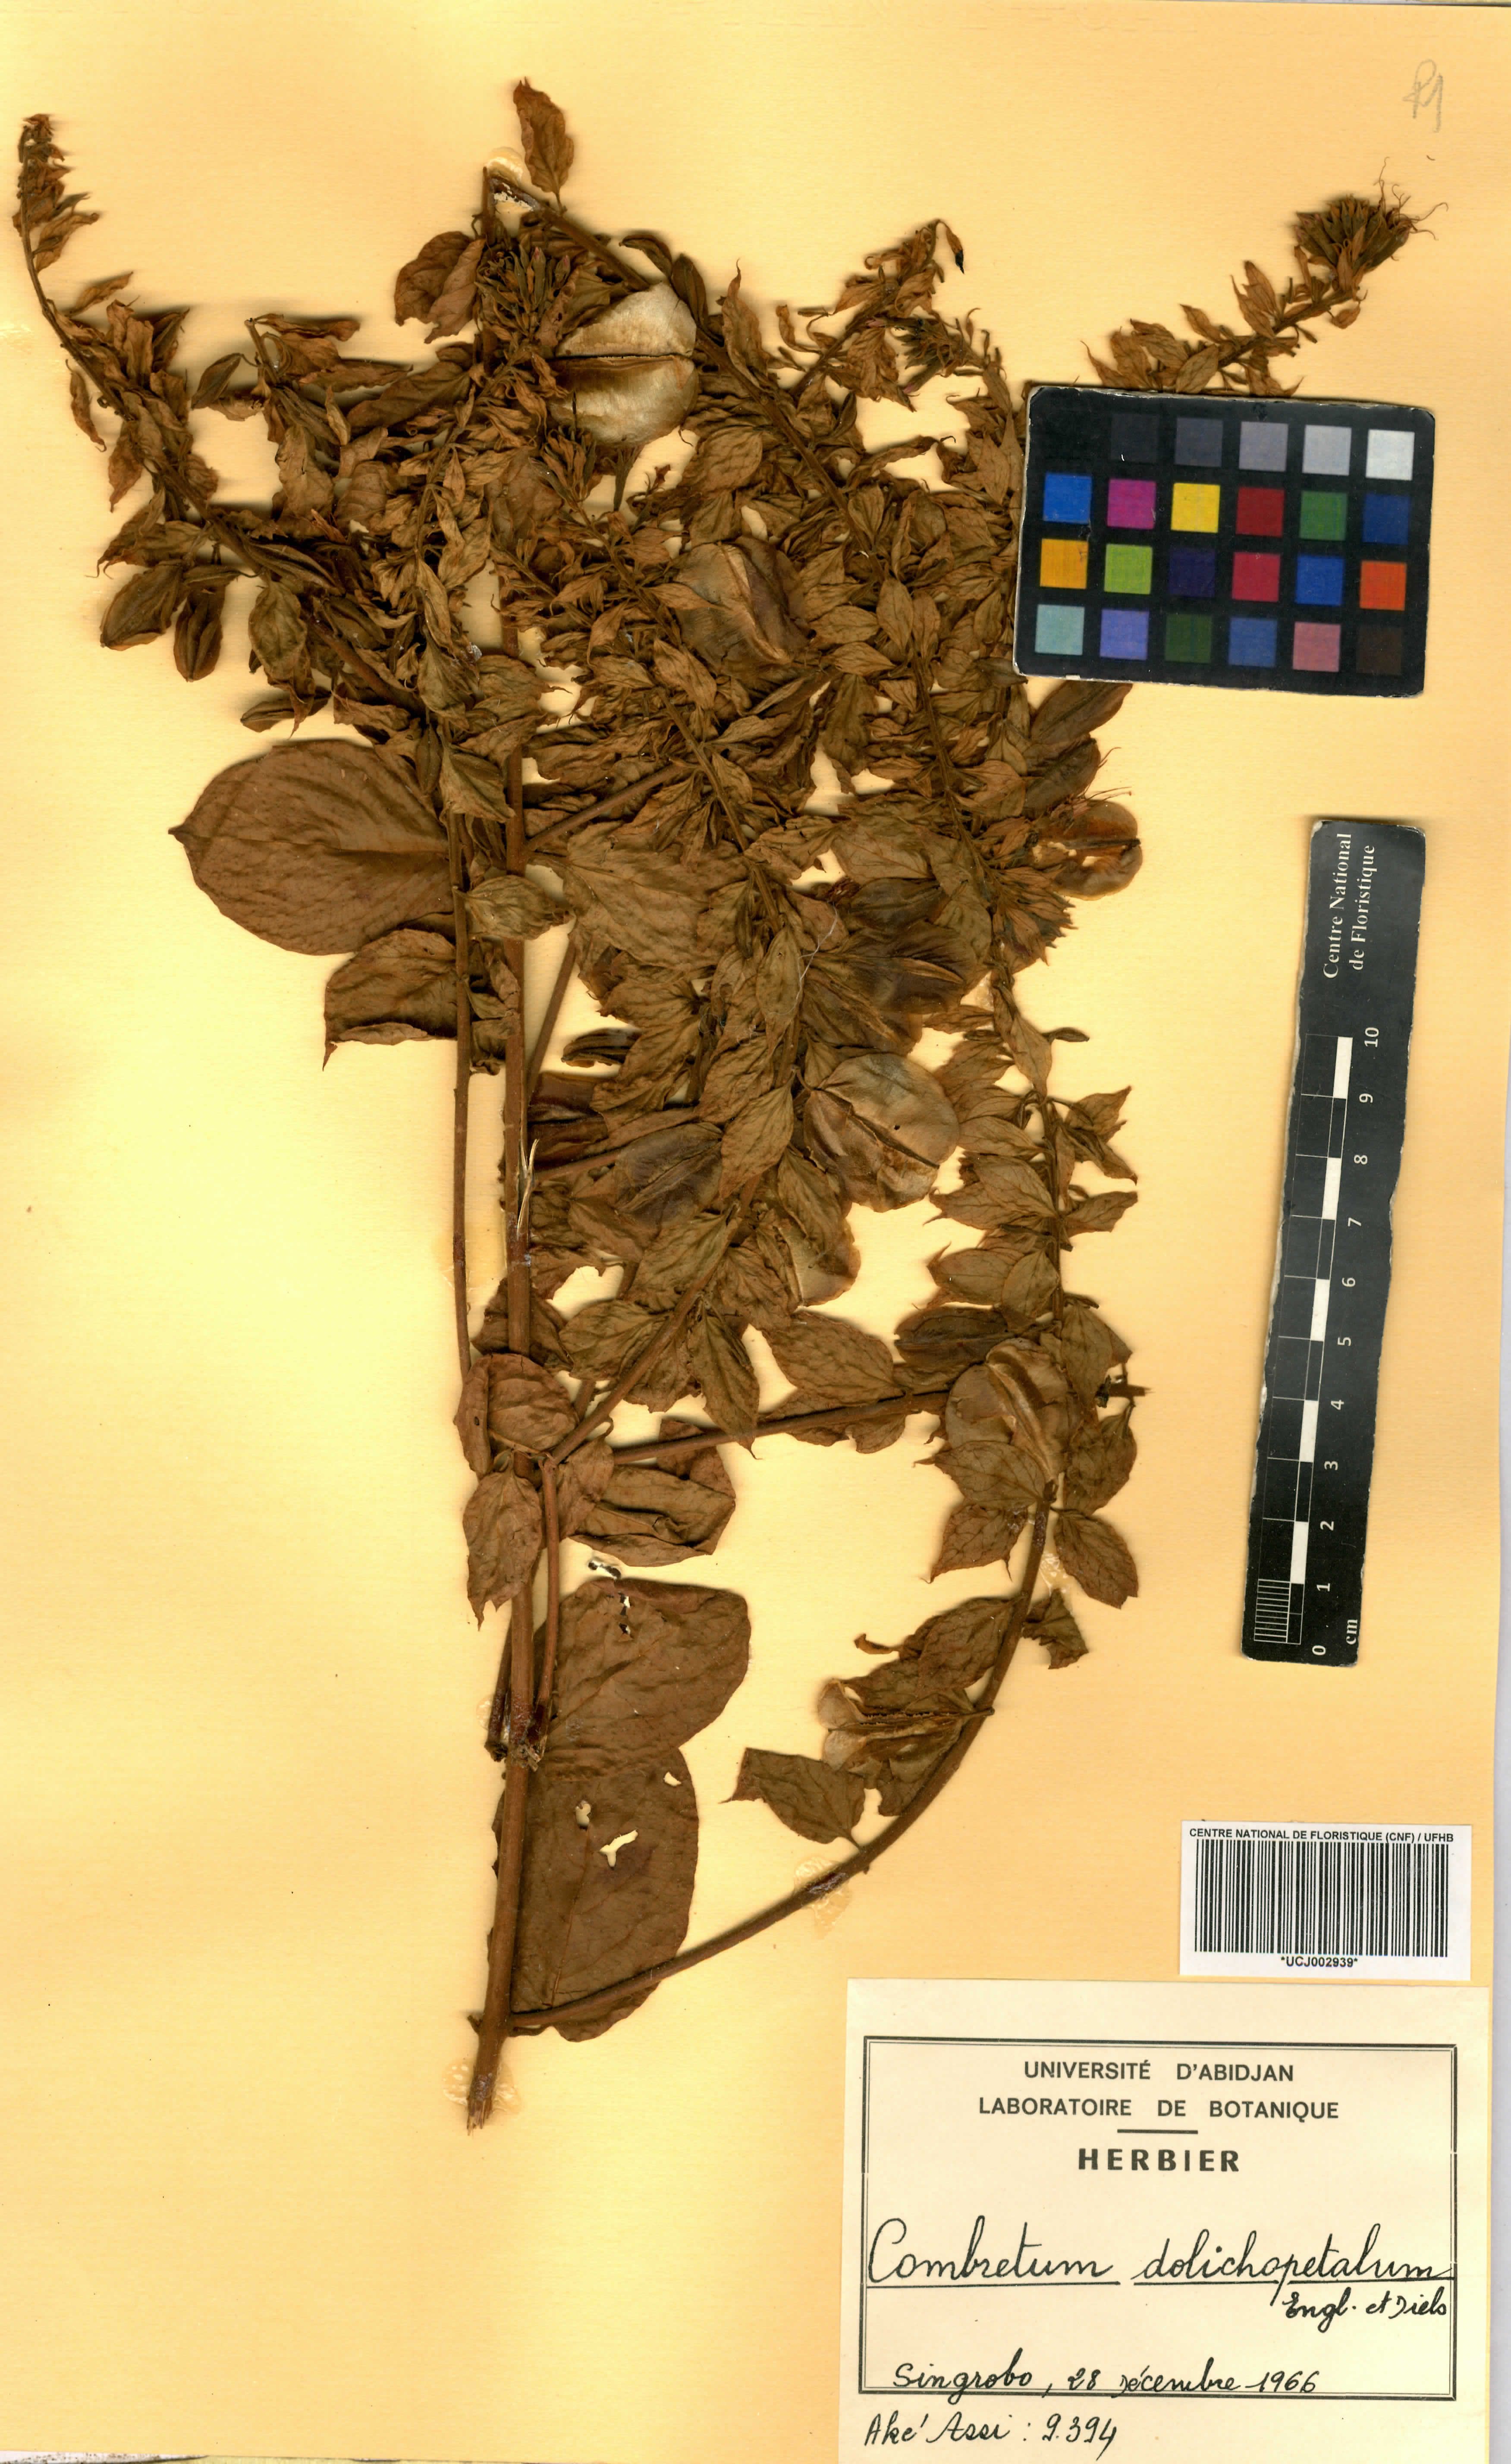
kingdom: Plantae
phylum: Tracheophyta
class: Magnoliopsida
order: Myrtales
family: Combretaceae
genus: Combretum
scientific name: Combretum comosum
